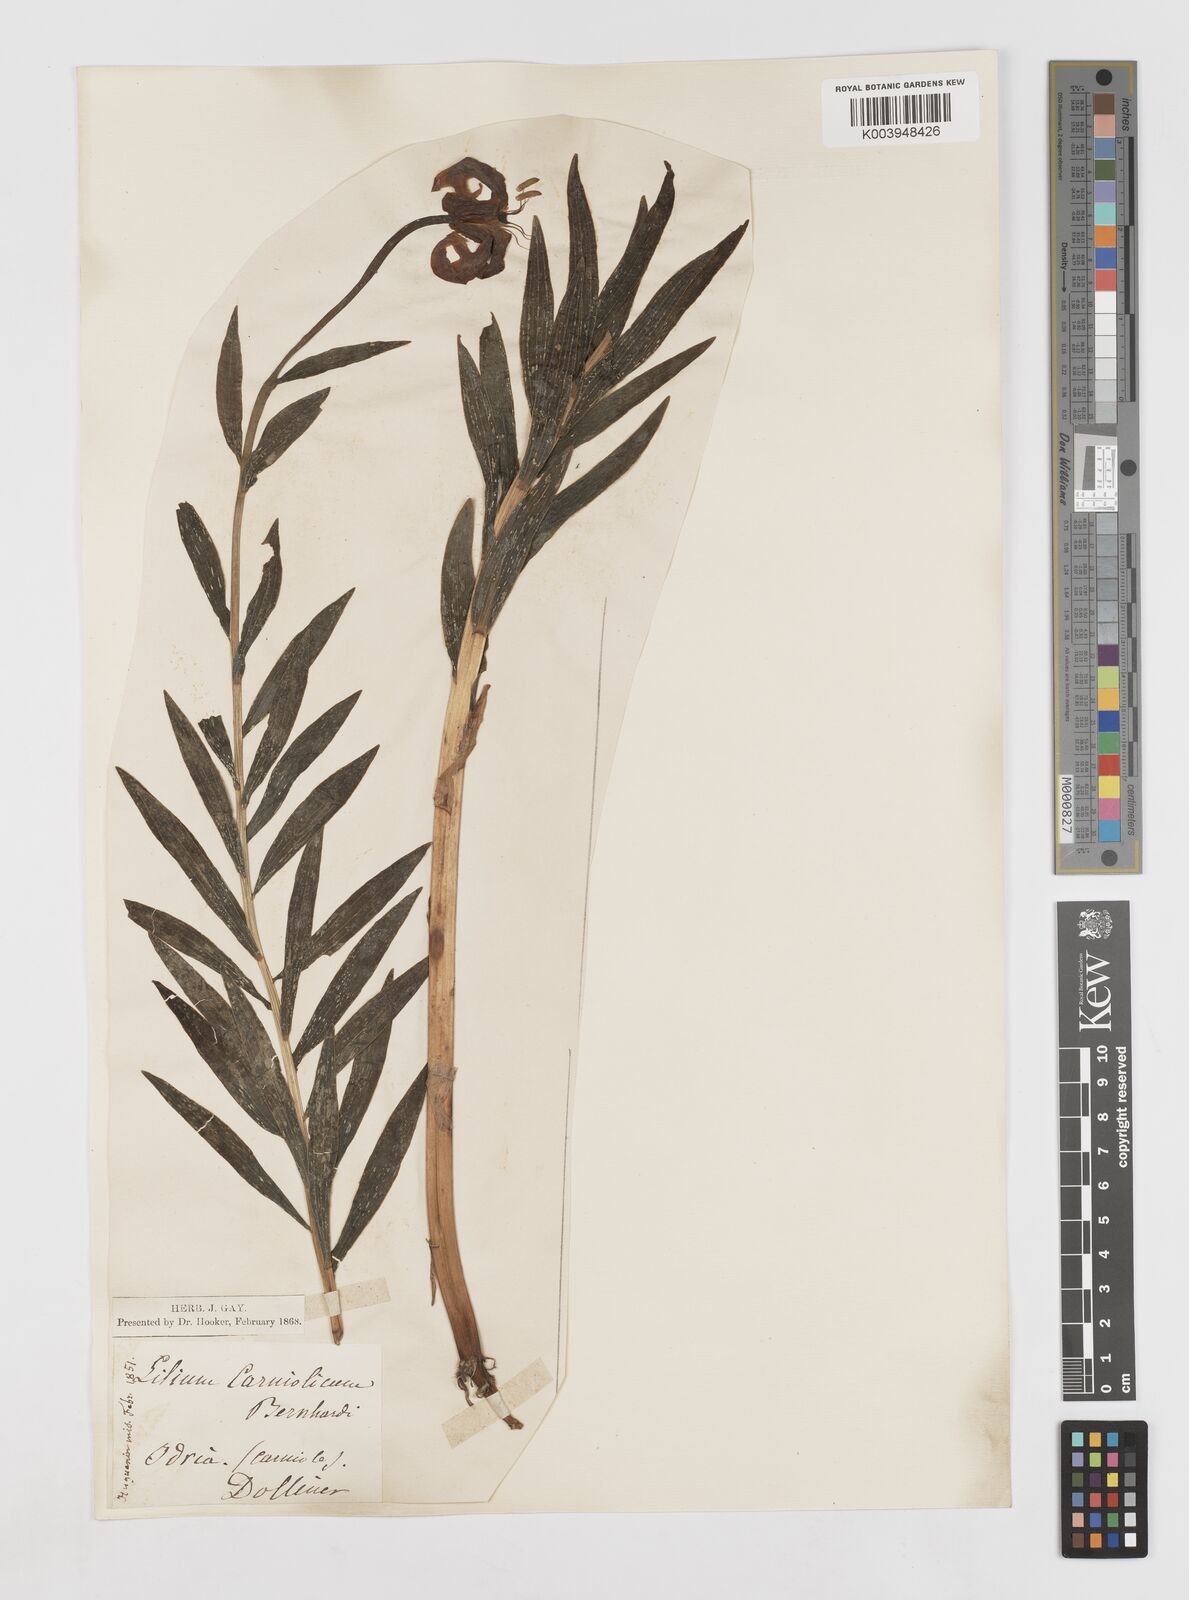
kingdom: Plantae
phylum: Tracheophyta
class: Liliopsida
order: Liliales
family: Liliaceae
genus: Lilium
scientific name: Lilium carniolicum
